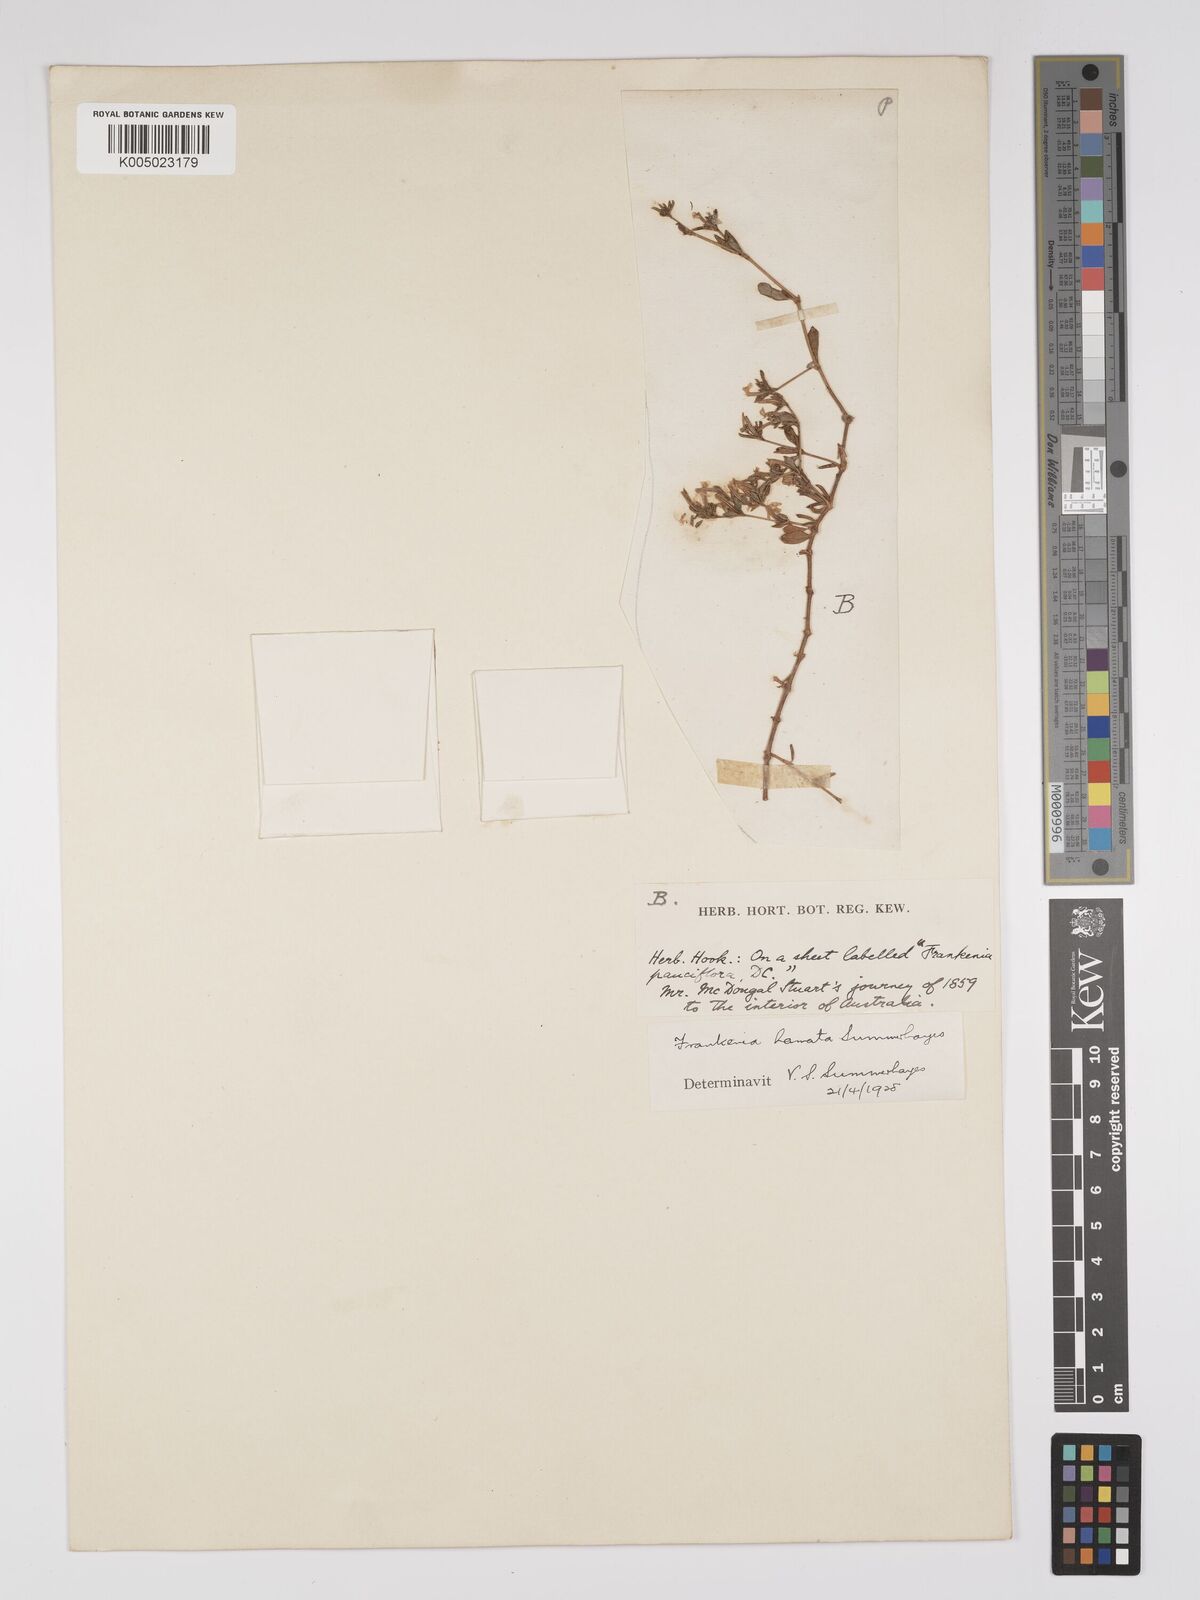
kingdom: Plantae
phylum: Tracheophyta
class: Magnoliopsida
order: Caryophyllales
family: Frankeniaceae
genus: Frankenia
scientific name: Frankenia uncinata
